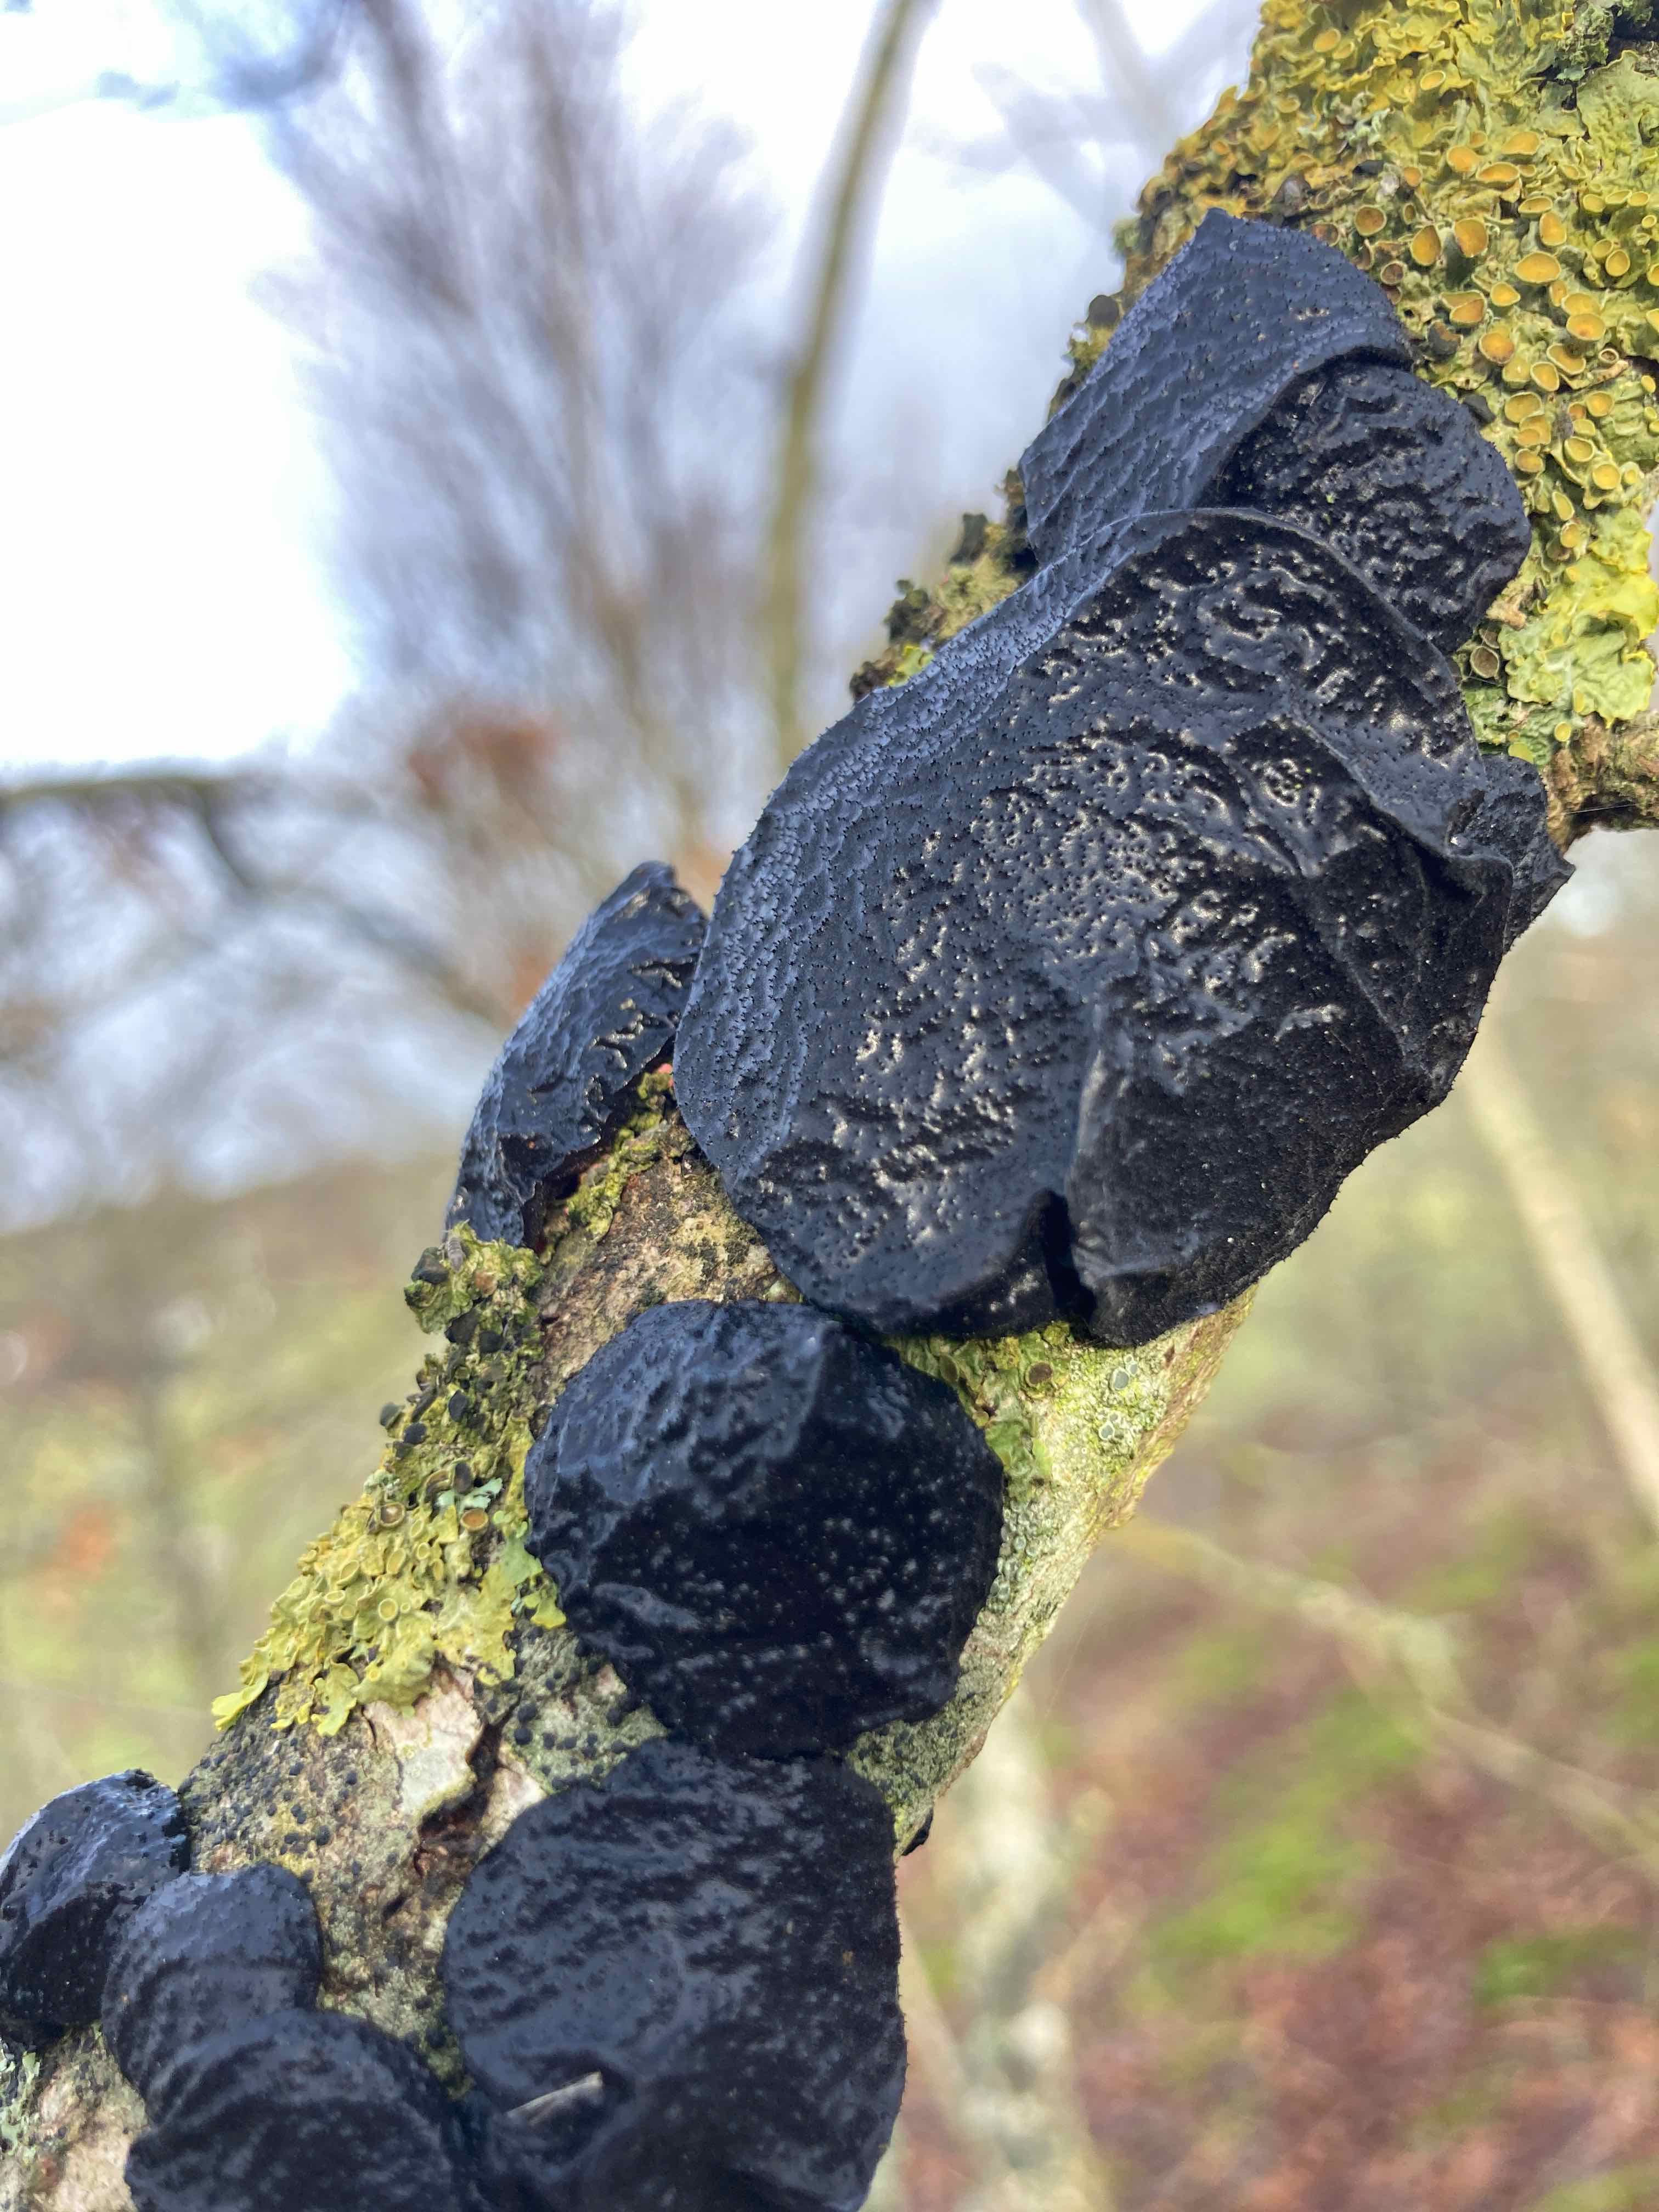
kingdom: Fungi
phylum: Basidiomycota
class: Agaricomycetes
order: Auriculariales
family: Auriculariaceae
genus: Exidia
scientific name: Exidia glandulosa
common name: ege-bævretop
